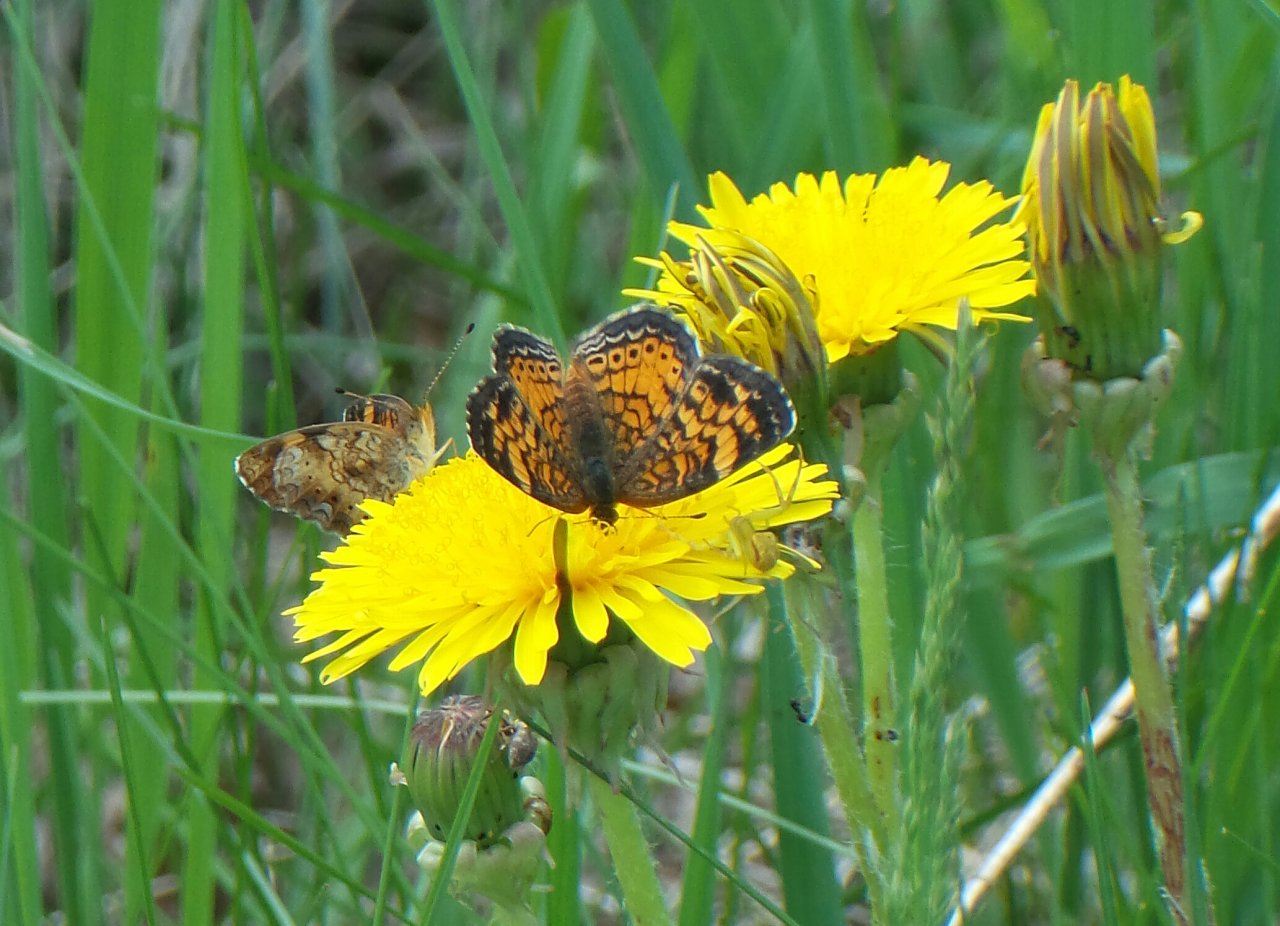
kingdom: Animalia
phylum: Arthropoda
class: Insecta
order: Lepidoptera
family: Nymphalidae
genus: Phyciodes
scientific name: Phyciodes tharos
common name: Pearl Crescent
